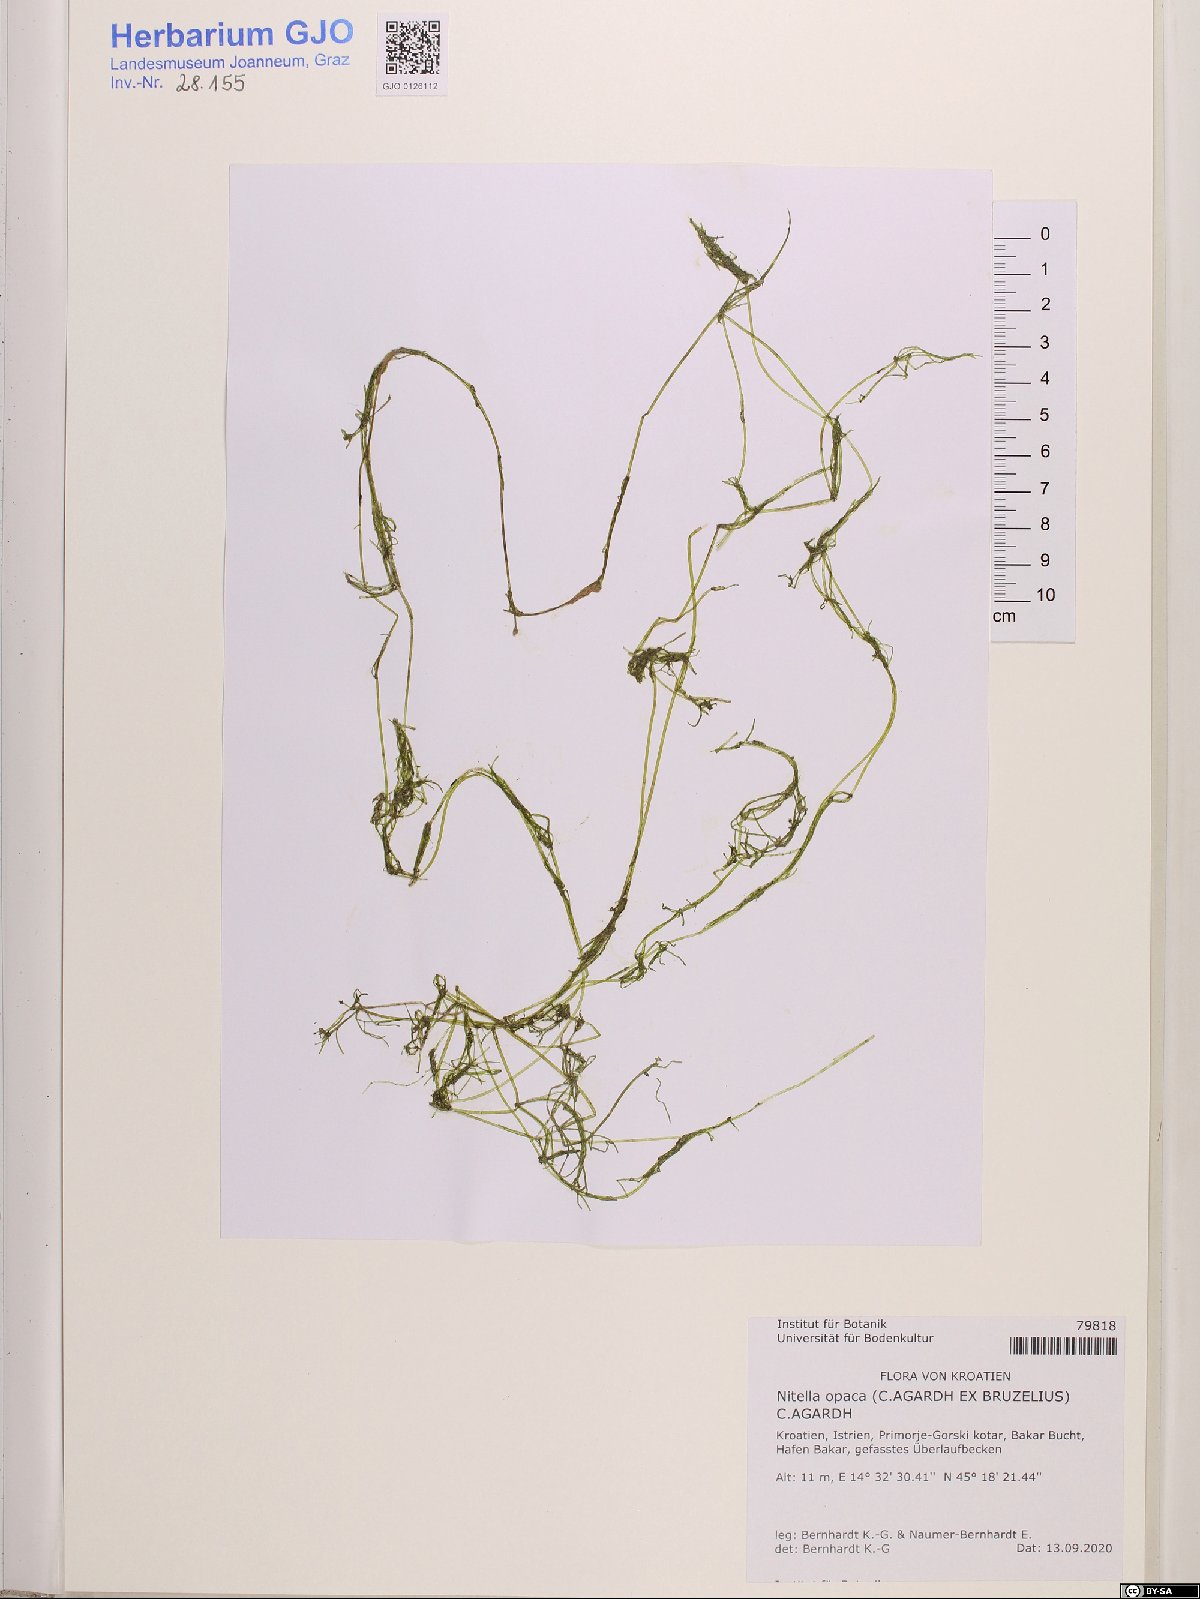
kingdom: Plantae
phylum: Charophyta
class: Charophyceae
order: Charales
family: Characeae
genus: Nitella
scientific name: Nitella opaca
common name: Dark stonewort
